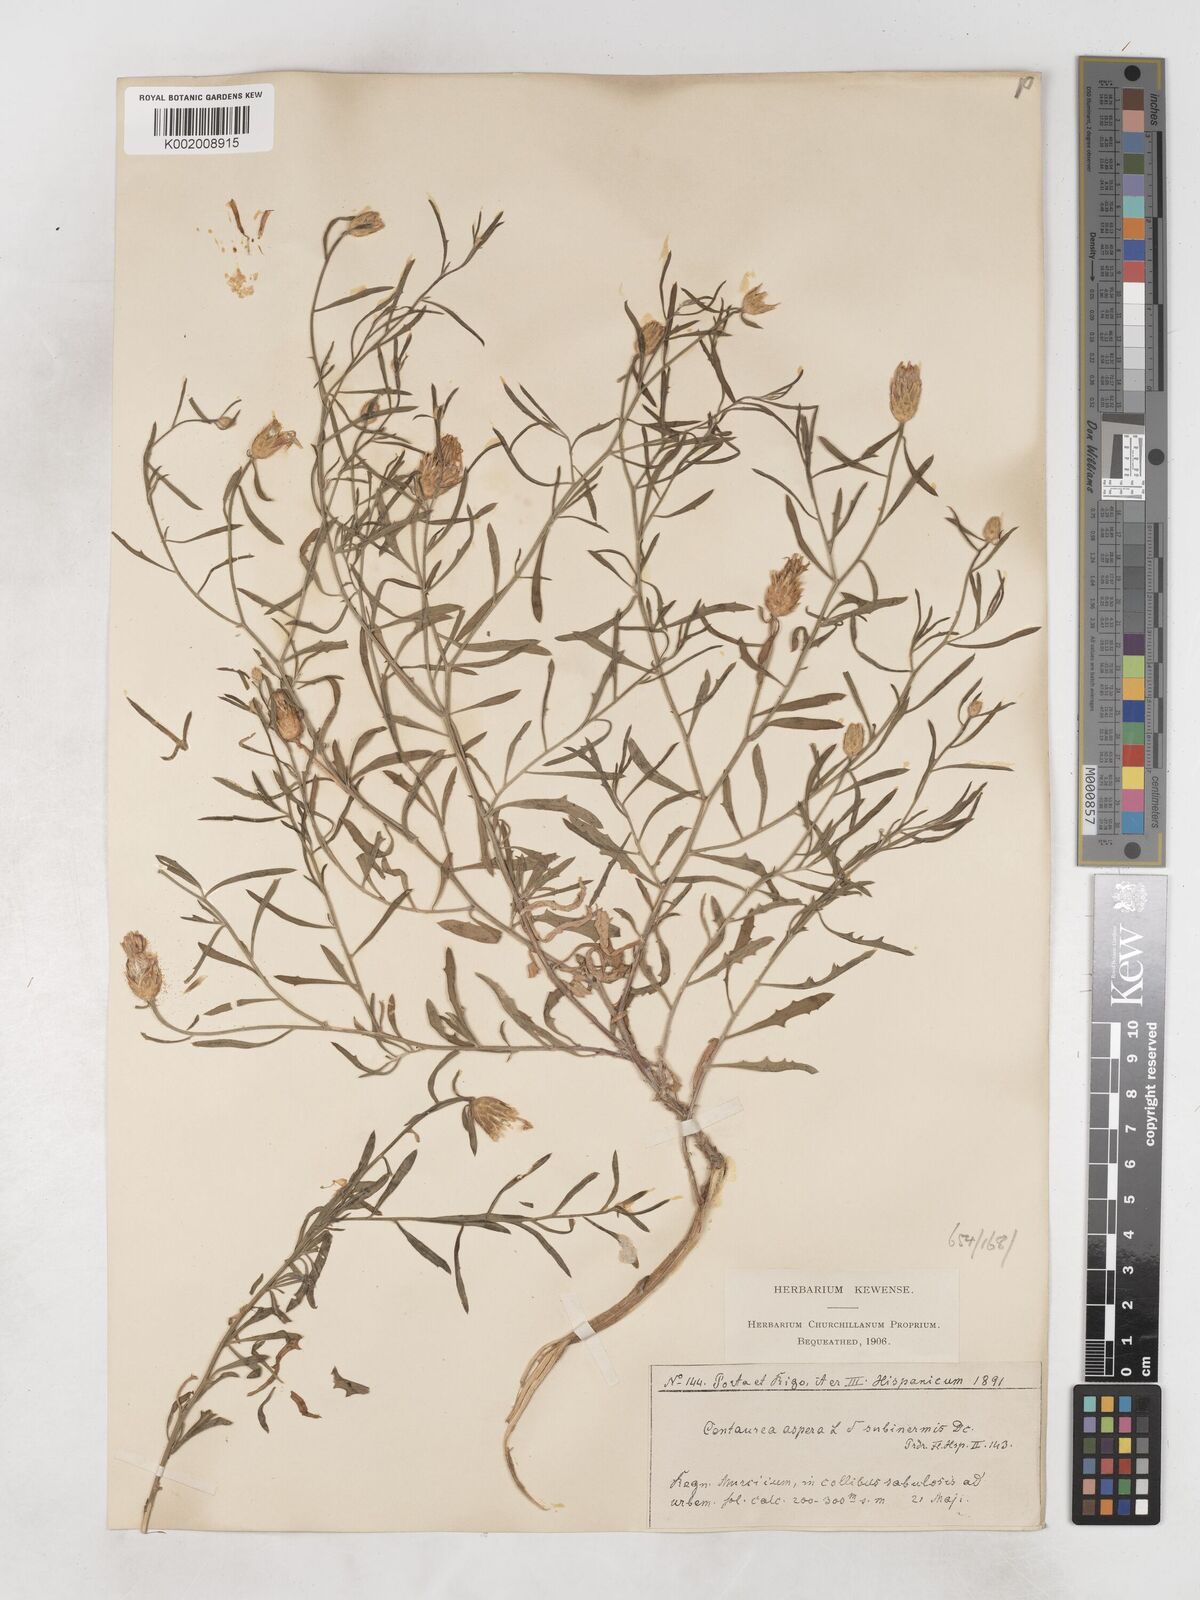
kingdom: Plantae
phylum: Tracheophyta
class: Magnoliopsida
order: Asterales
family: Asteraceae
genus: Centaurea
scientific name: Centaurea aspera
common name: Rough star-thistle
